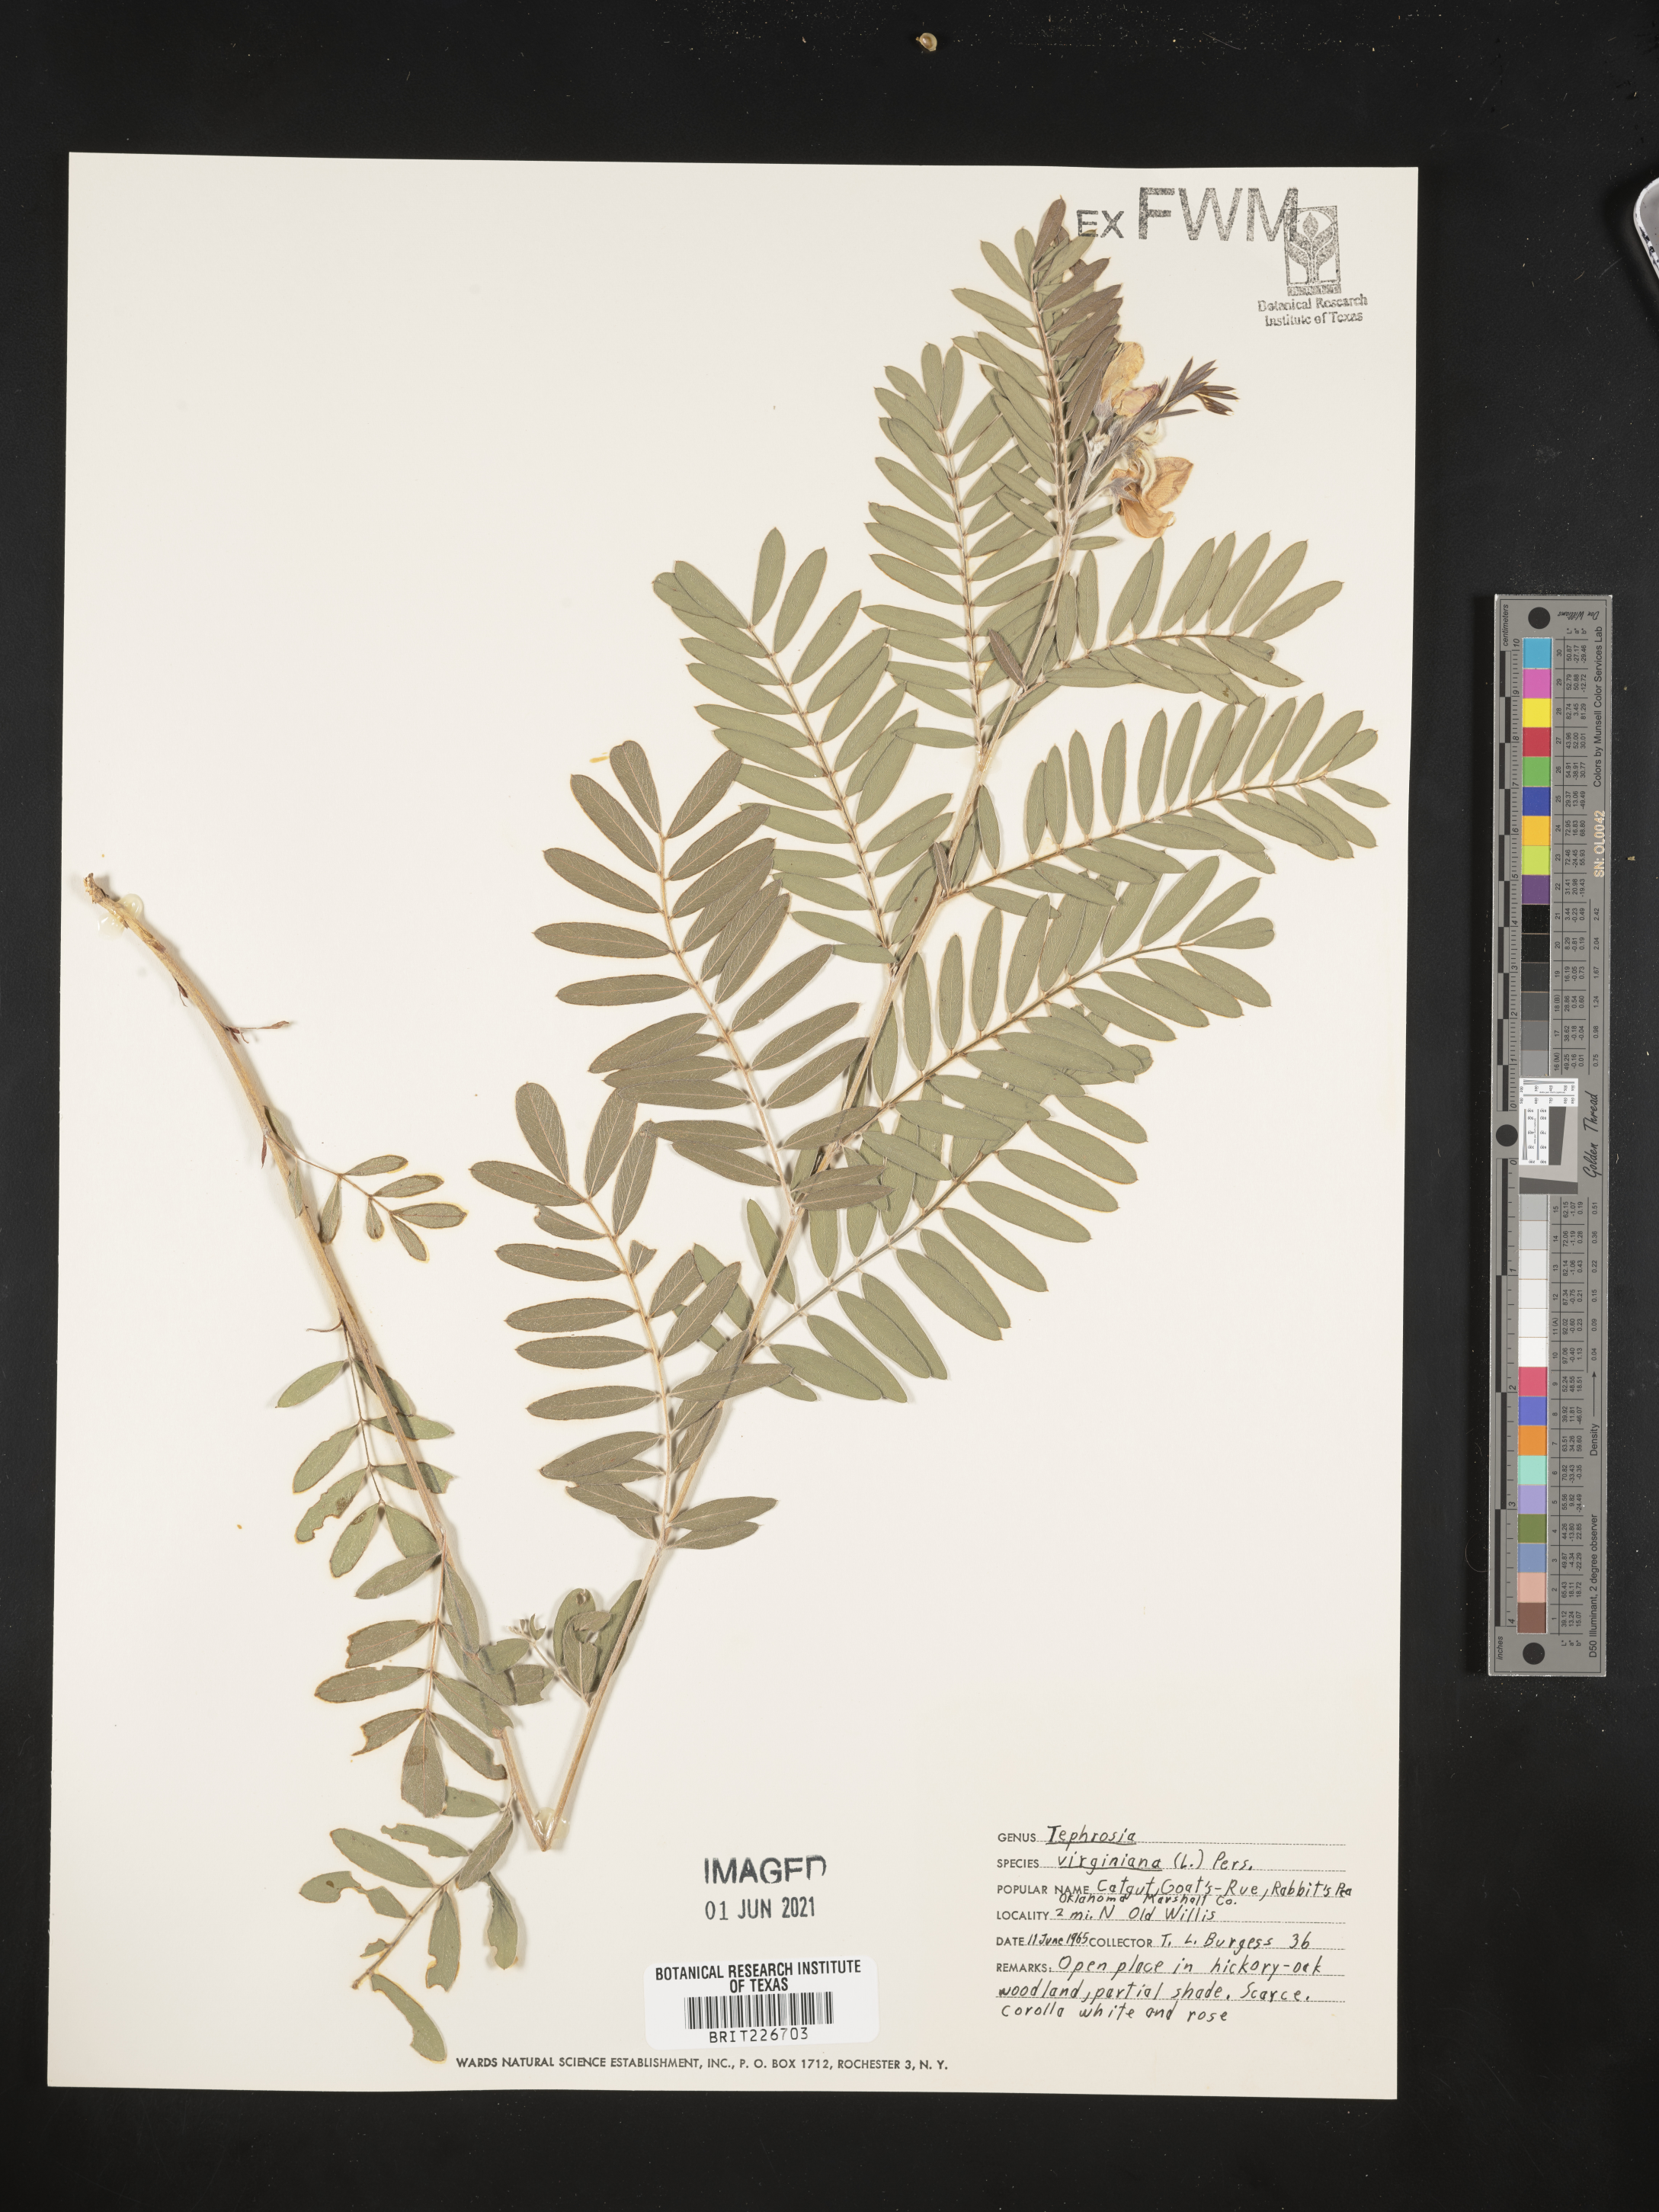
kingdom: Plantae
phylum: Tracheophyta
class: Magnoliopsida
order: Fabales
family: Fabaceae
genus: Tephrosia
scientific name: Tephrosia virginiana
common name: Rabbit-pea
